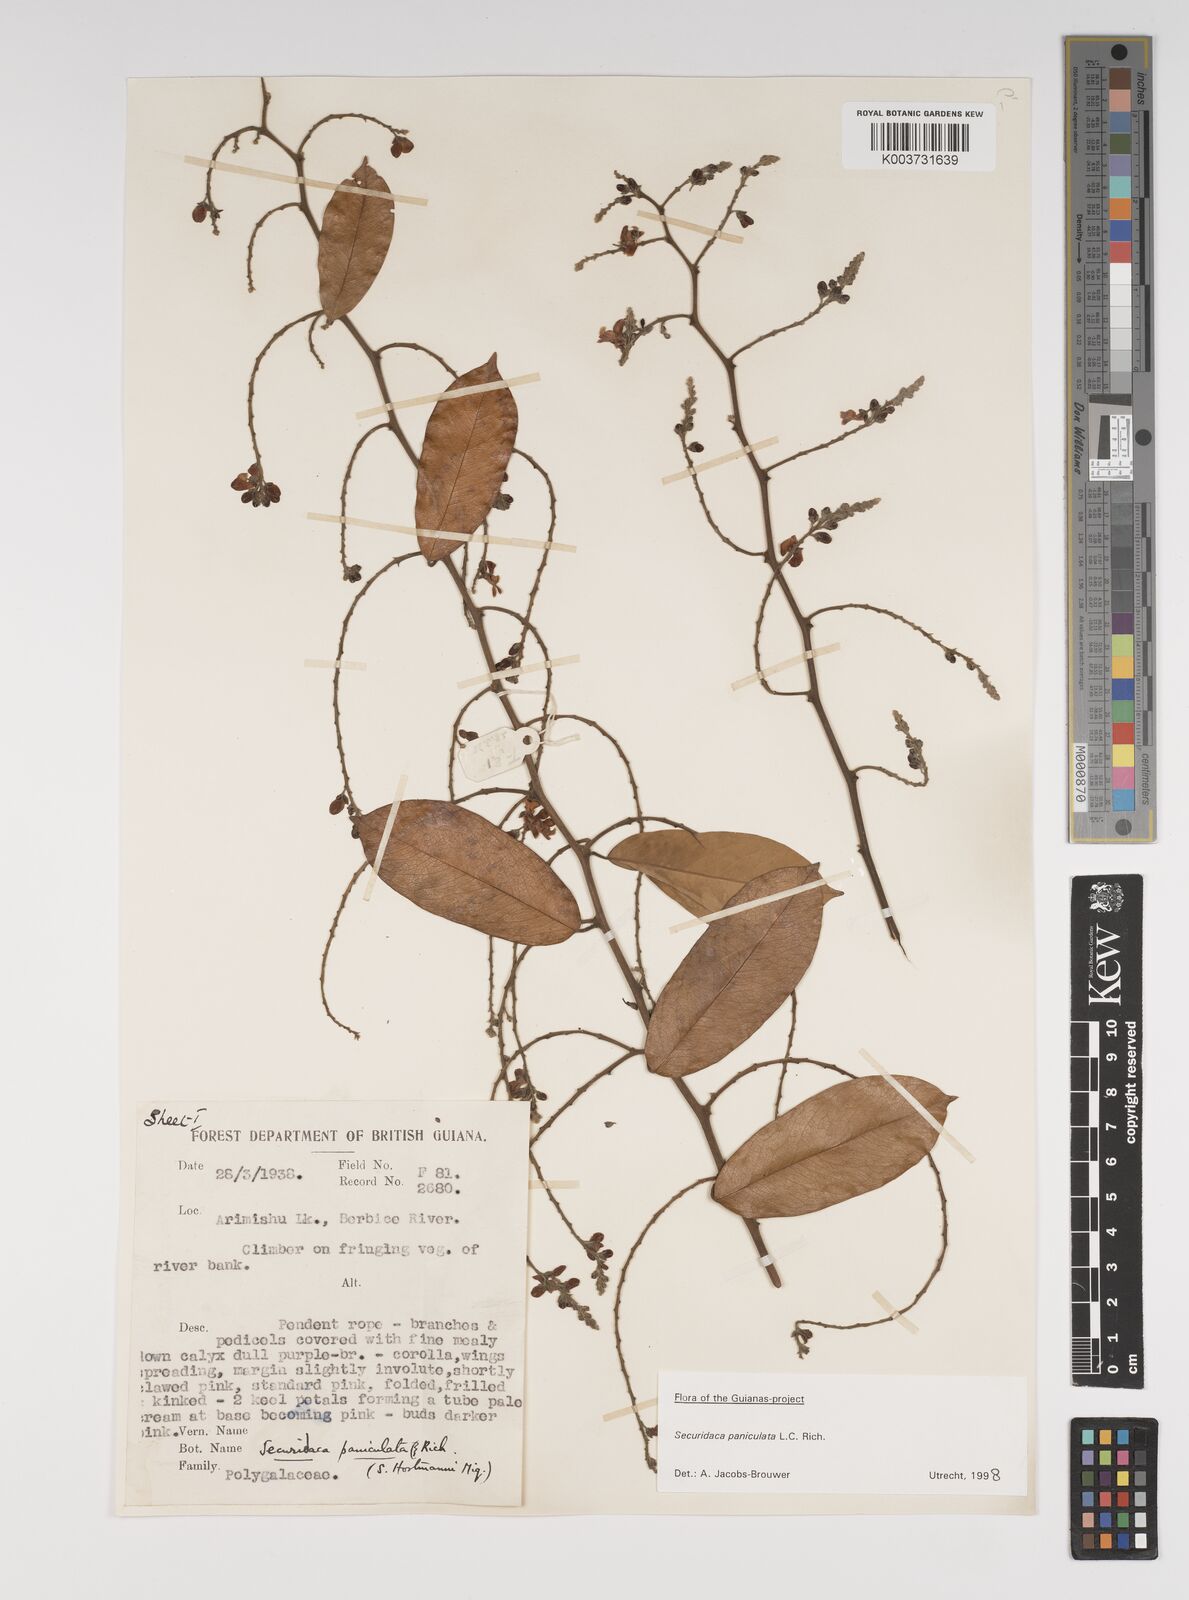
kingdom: Plantae
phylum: Tracheophyta
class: Magnoliopsida
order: Fabales
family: Polygalaceae
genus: Securidaca
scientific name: Securidaca paniculata
